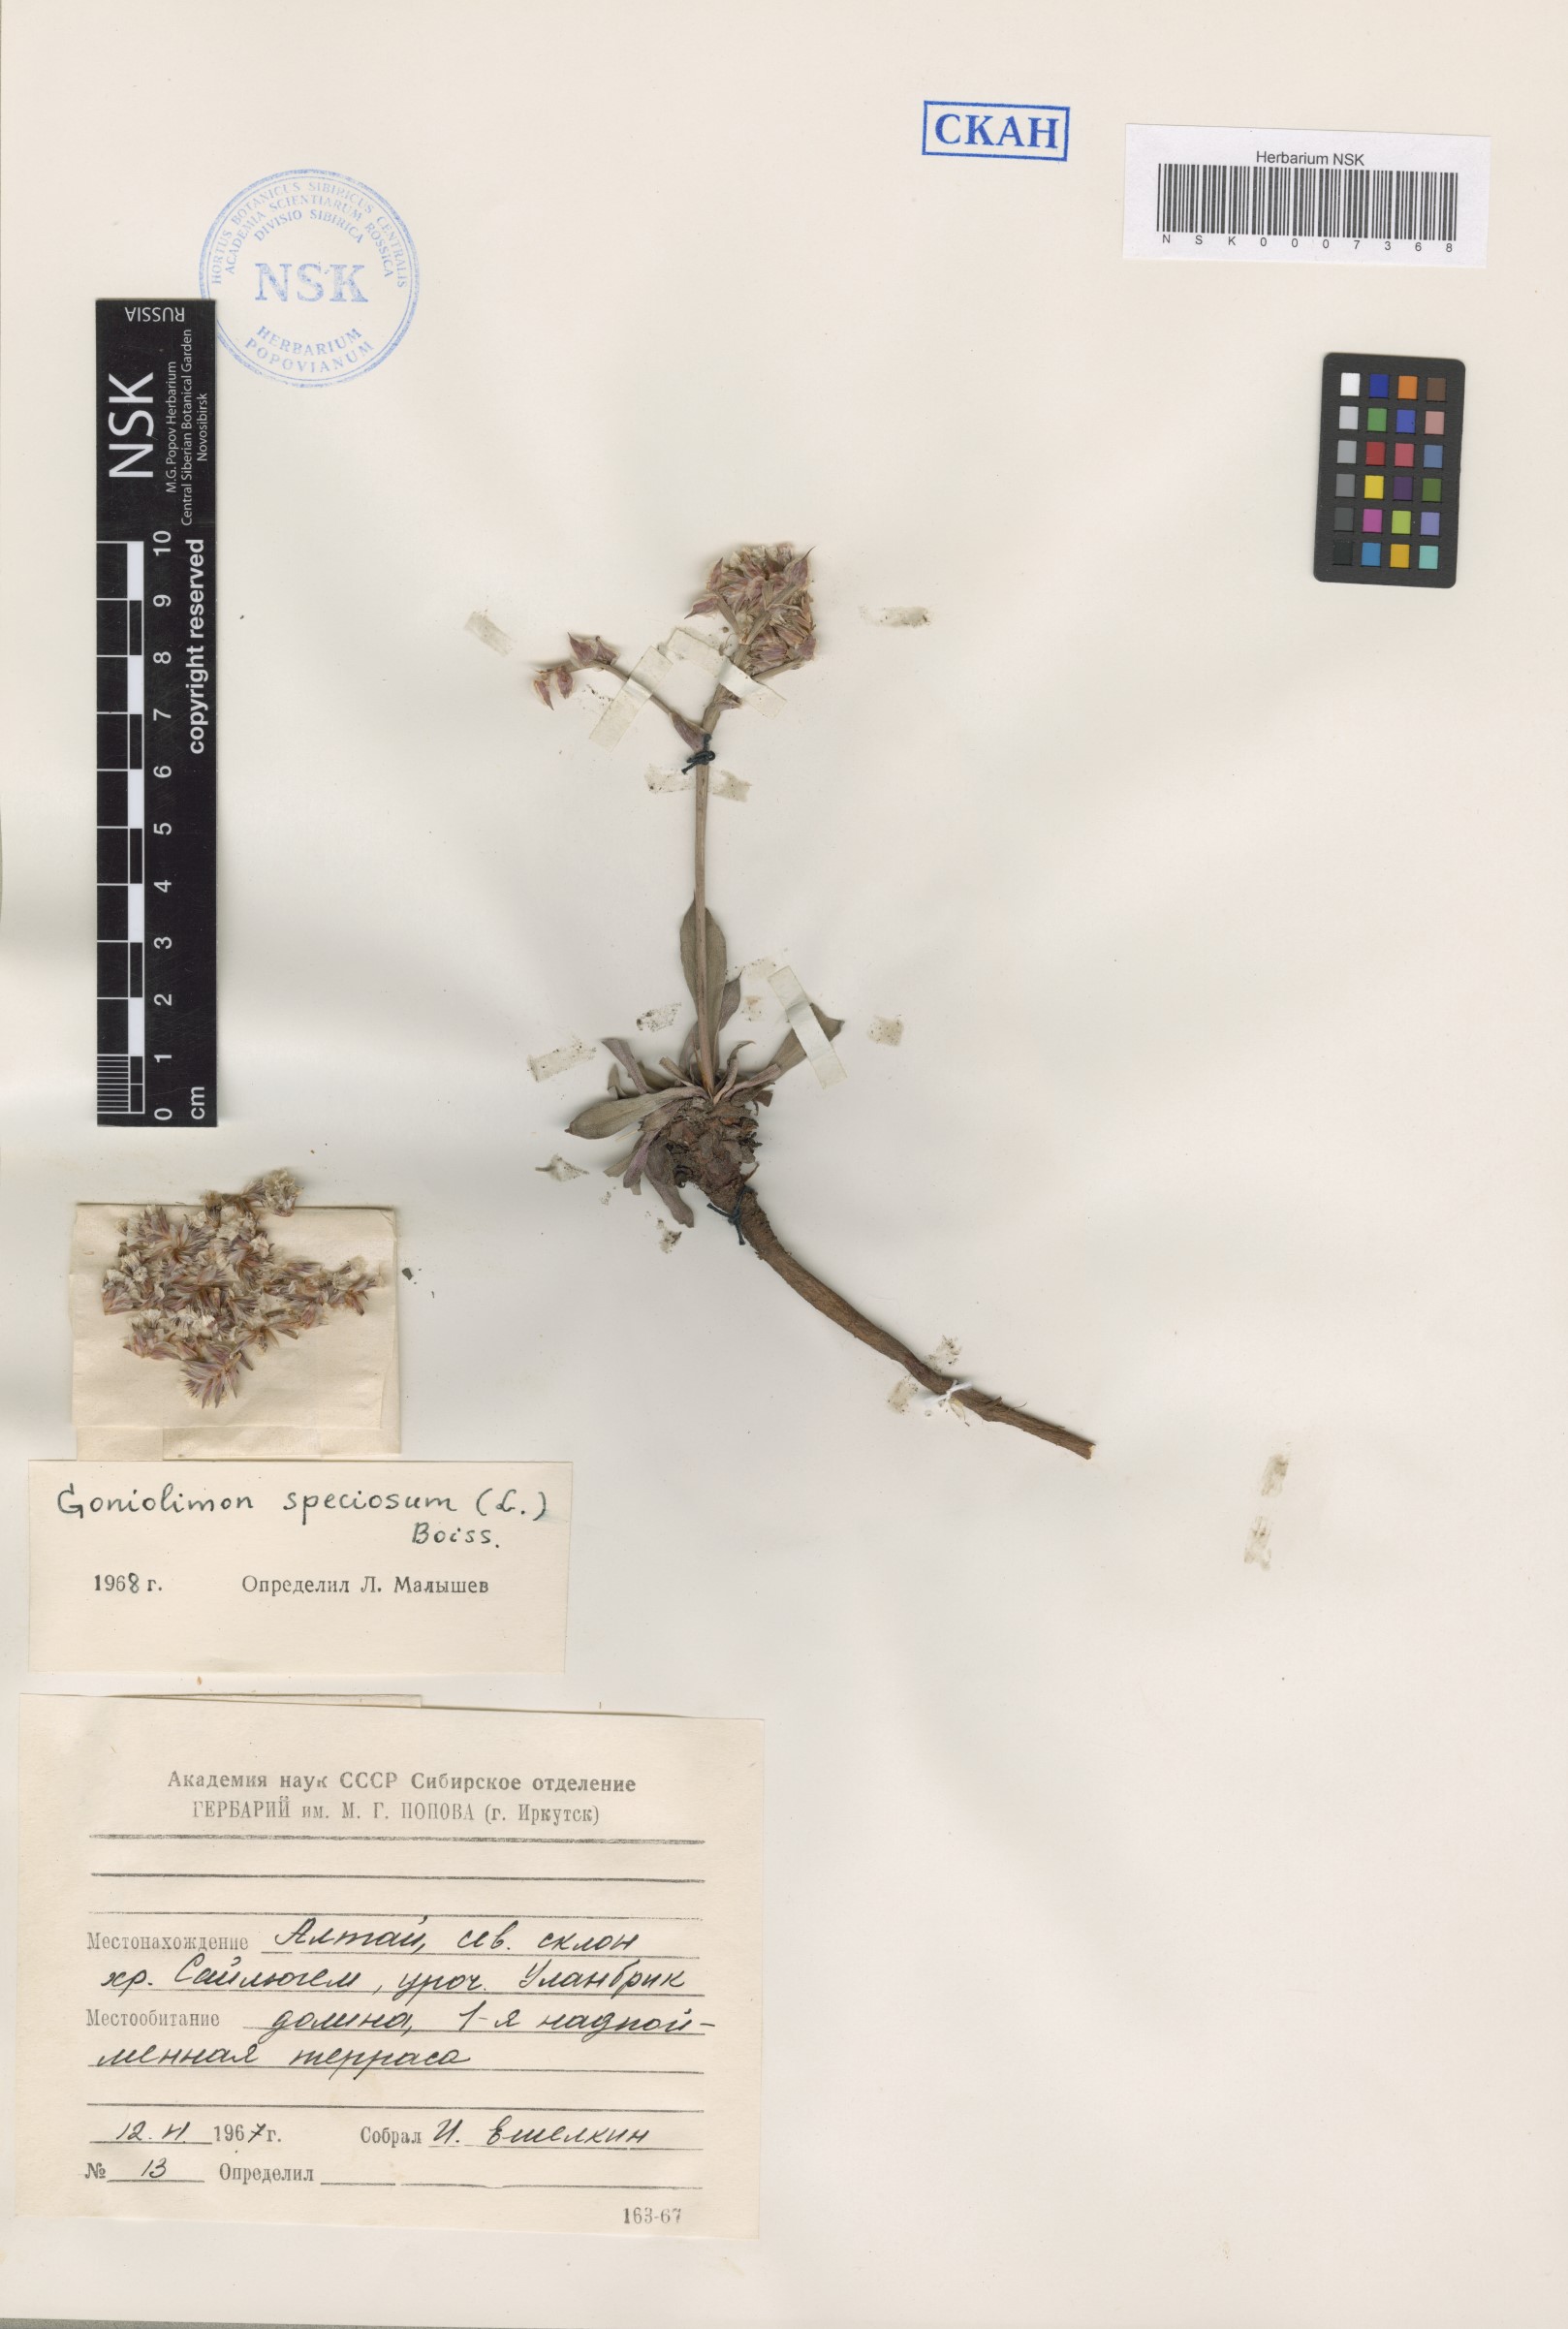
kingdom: Plantae
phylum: Tracheophyta
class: Magnoliopsida
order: Caryophyllales
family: Plumbaginaceae
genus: Goniolimon
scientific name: Goniolimon speciosum
